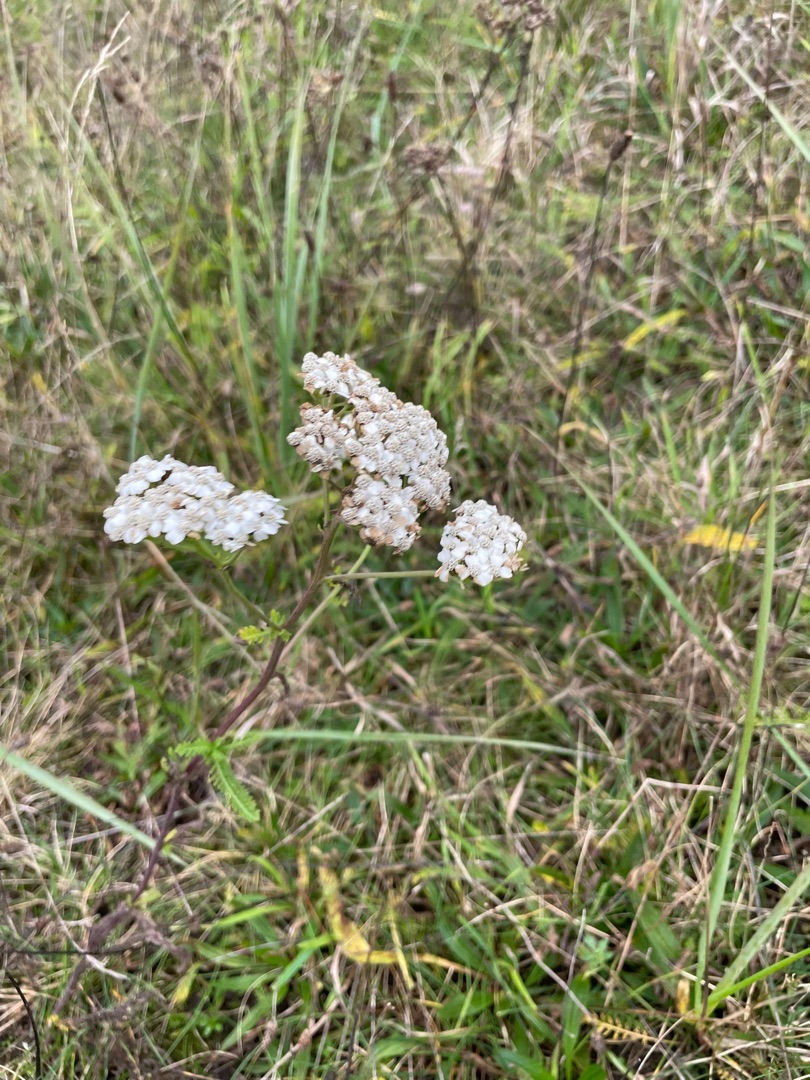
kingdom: Plantae
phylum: Tracheophyta
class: Magnoliopsida
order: Asterales
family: Asteraceae
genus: Achillea
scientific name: Achillea millefolium
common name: Almindelig røllike
